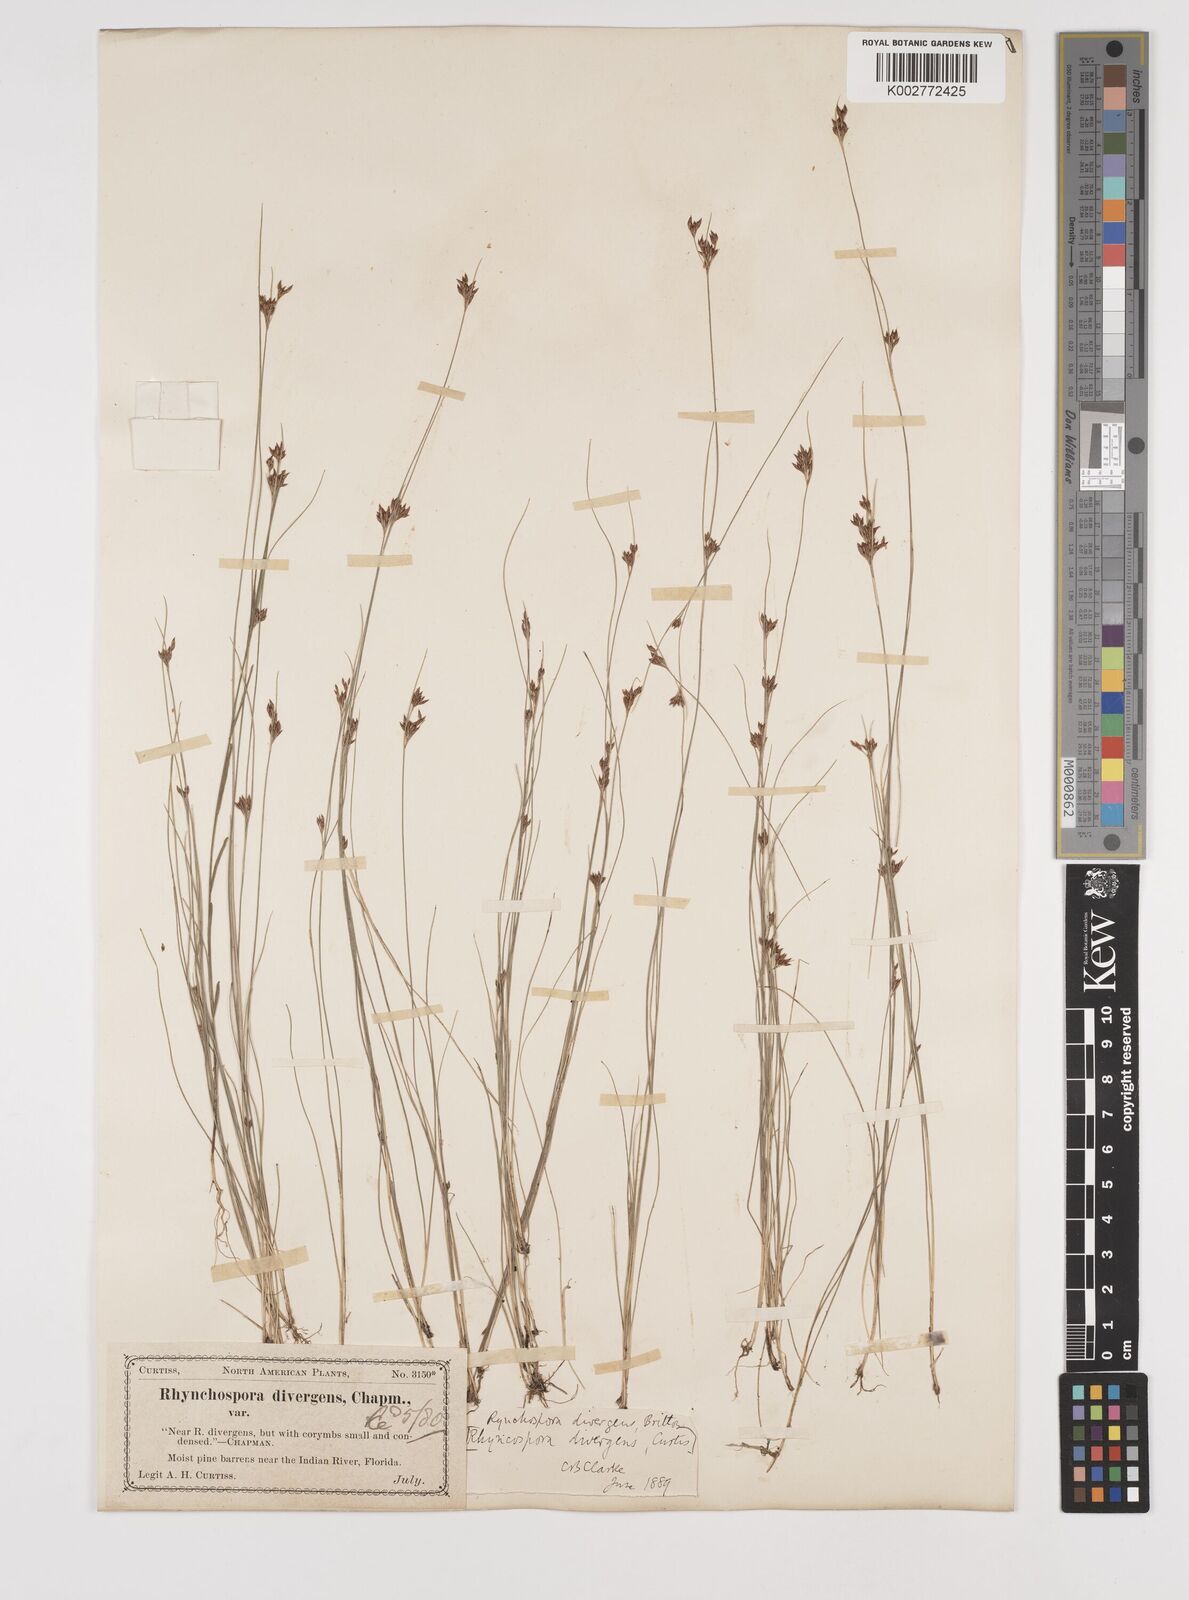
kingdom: Plantae
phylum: Tracheophyta
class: Liliopsida
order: Poales
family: Cyperaceae
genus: Rhynchospora
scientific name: Rhynchospora divergens
